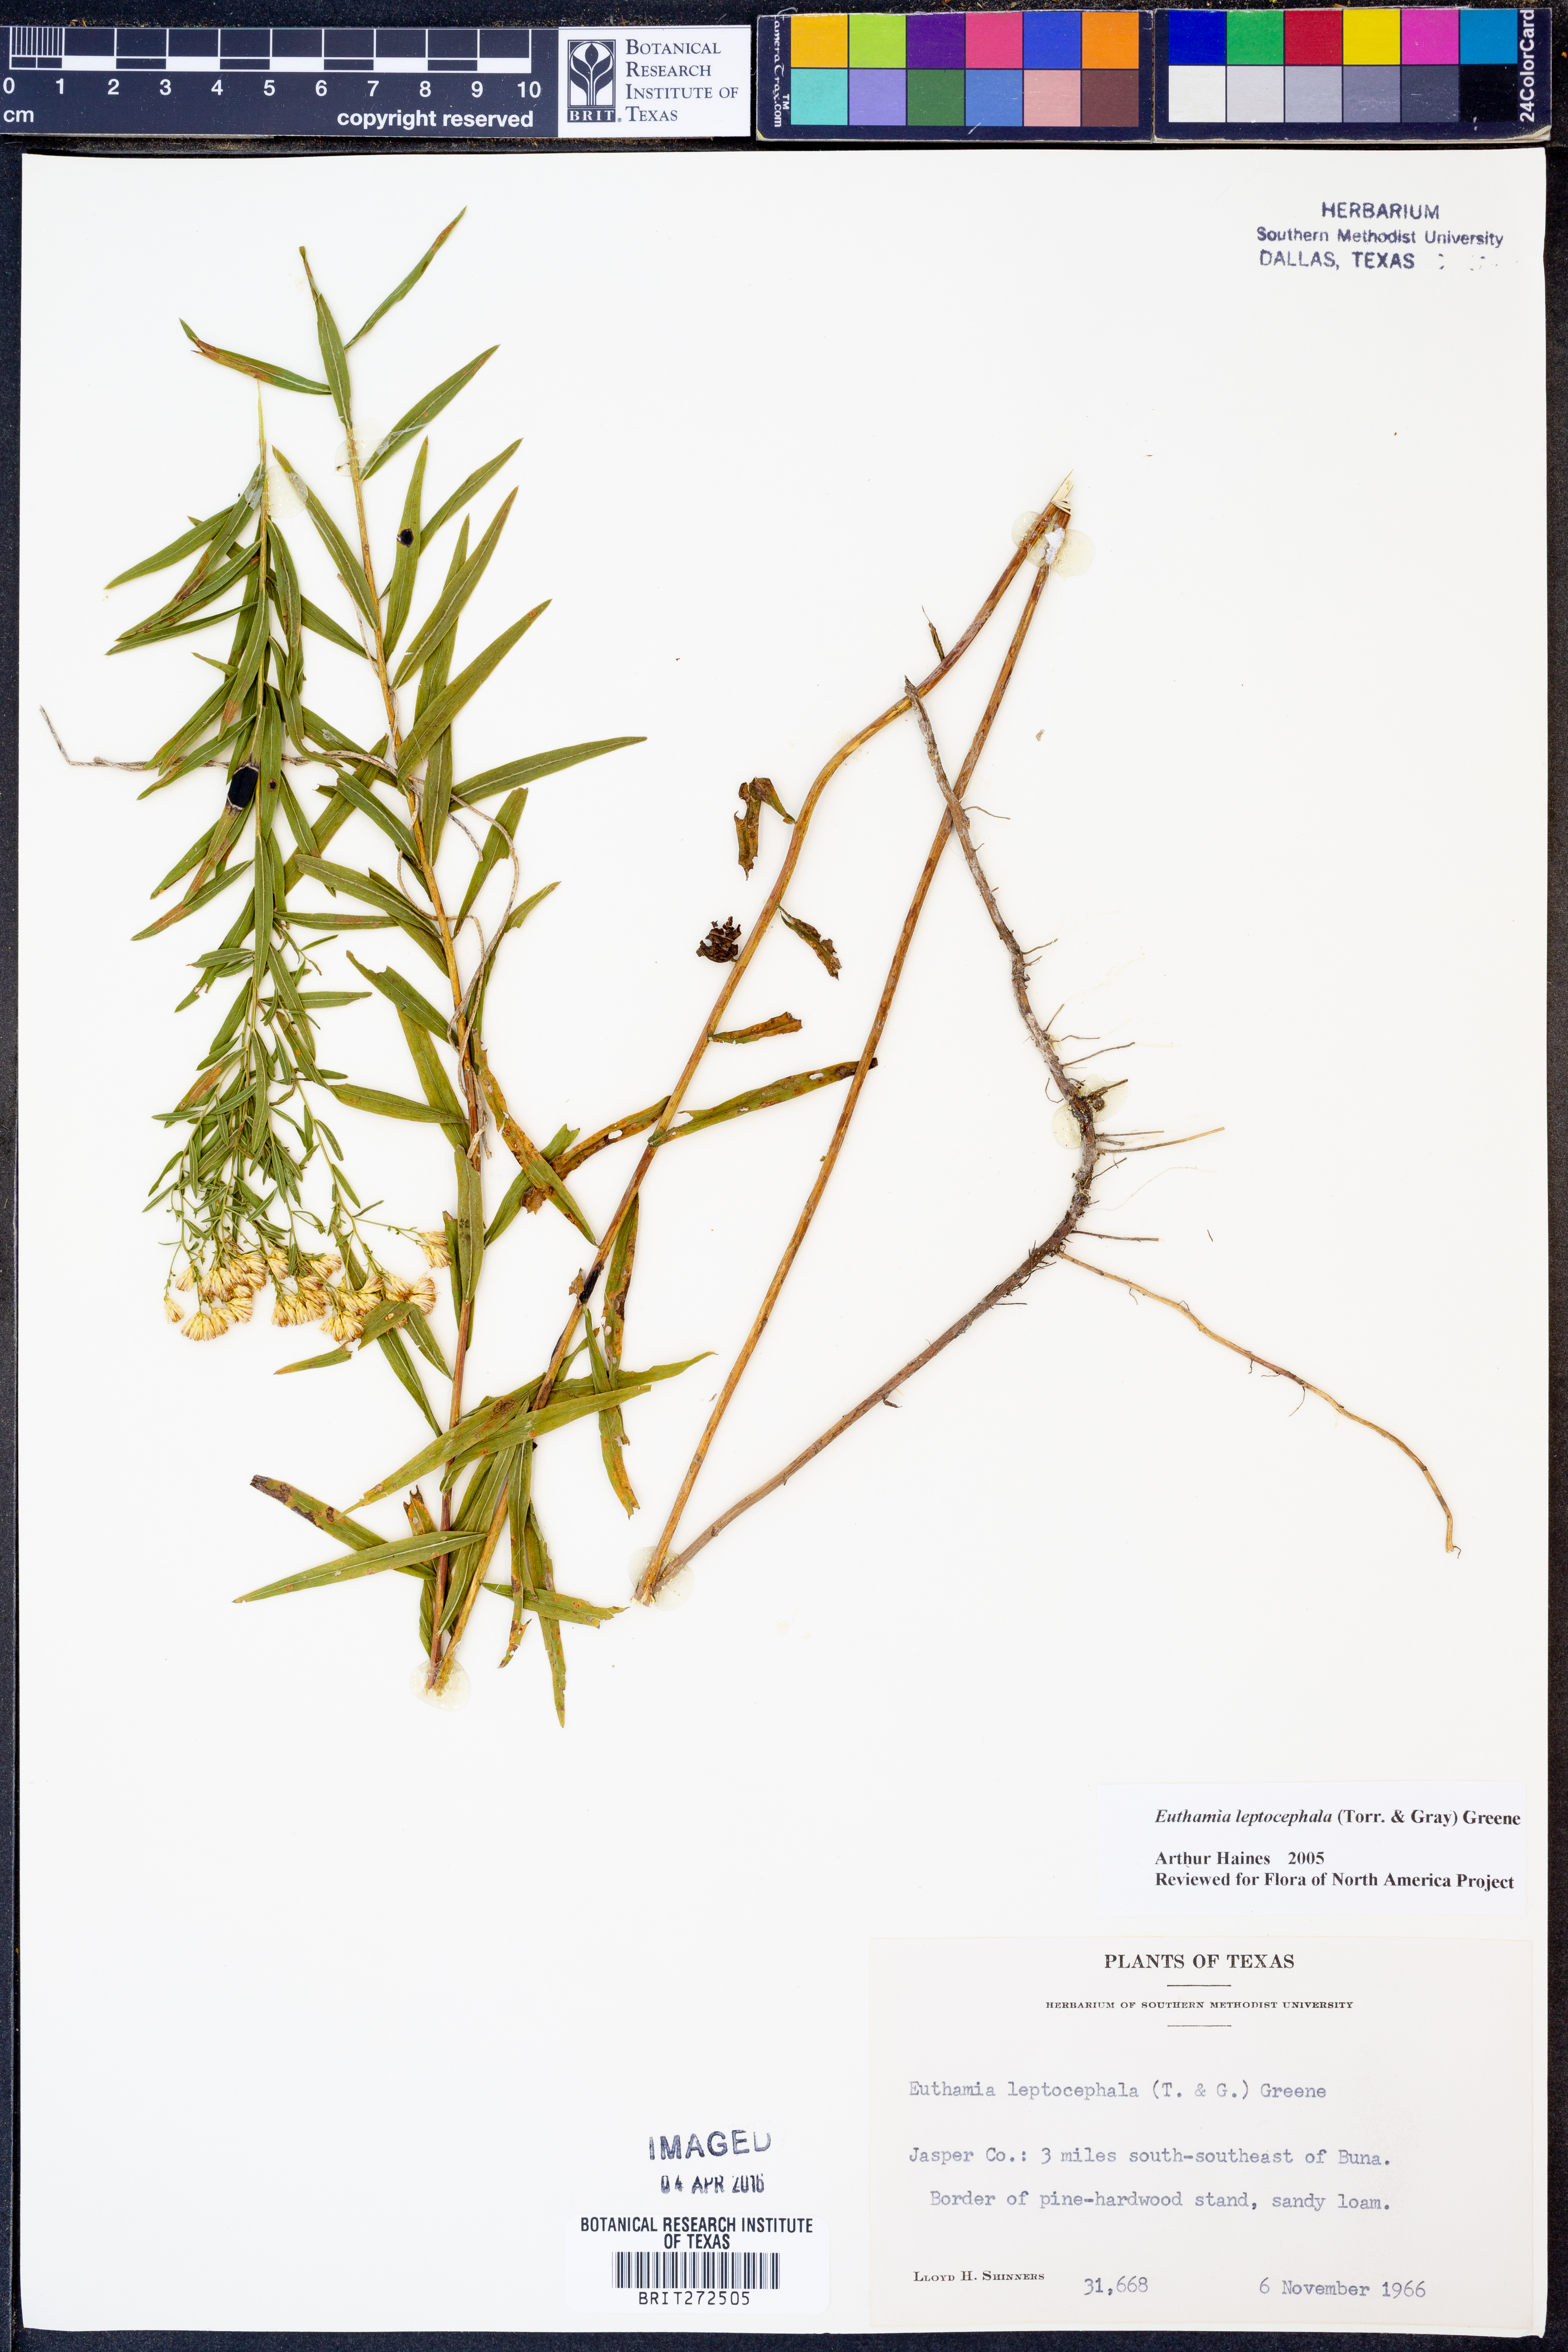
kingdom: Plantae
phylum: Tracheophyta
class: Magnoliopsida
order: Asterales
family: Asteraceae
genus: Euthamia
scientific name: Euthamia leptocephala
